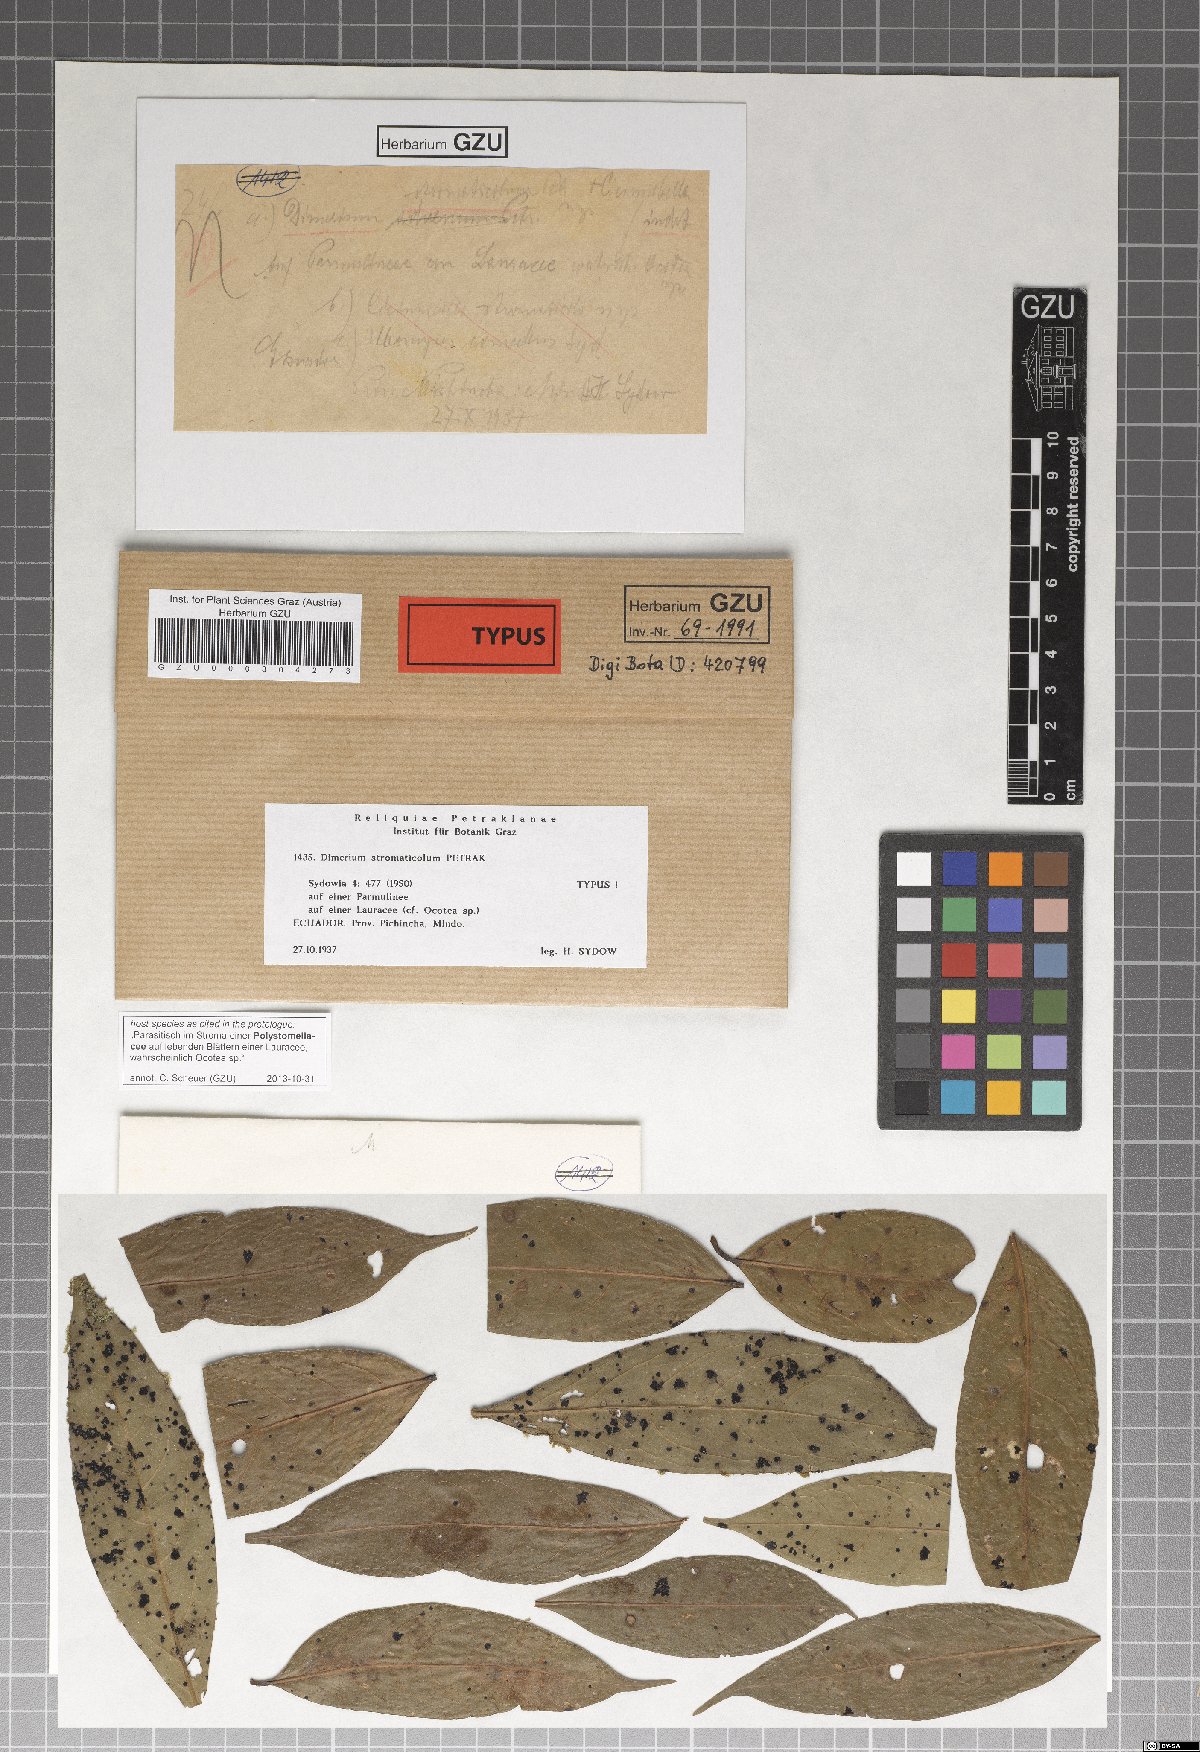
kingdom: Fungi
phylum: Ascomycota
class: Dothideomycetes
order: Dothideales
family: Parodiopsidaceae
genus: Dimerium
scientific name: Dimerium stromaticola
